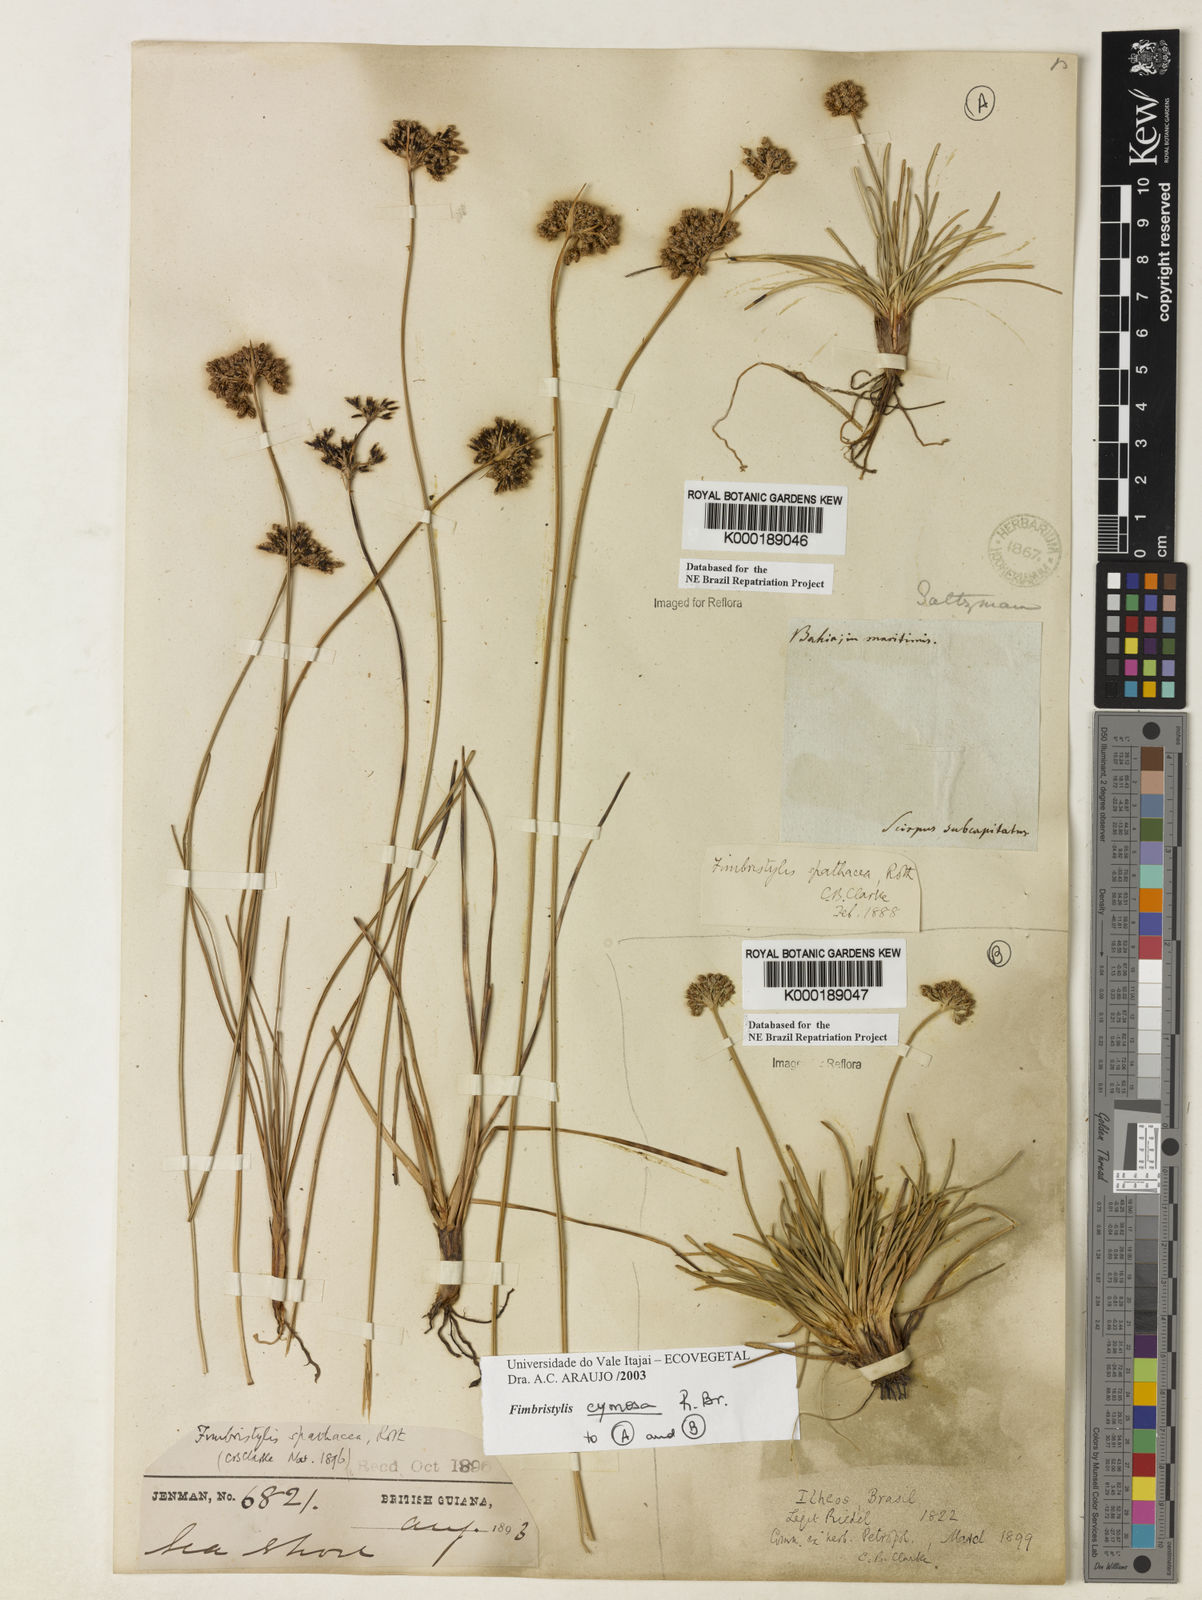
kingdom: Plantae
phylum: Tracheophyta
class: Liliopsida
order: Poales
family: Cyperaceae
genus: Fimbristylis
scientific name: Fimbristylis cymosa
